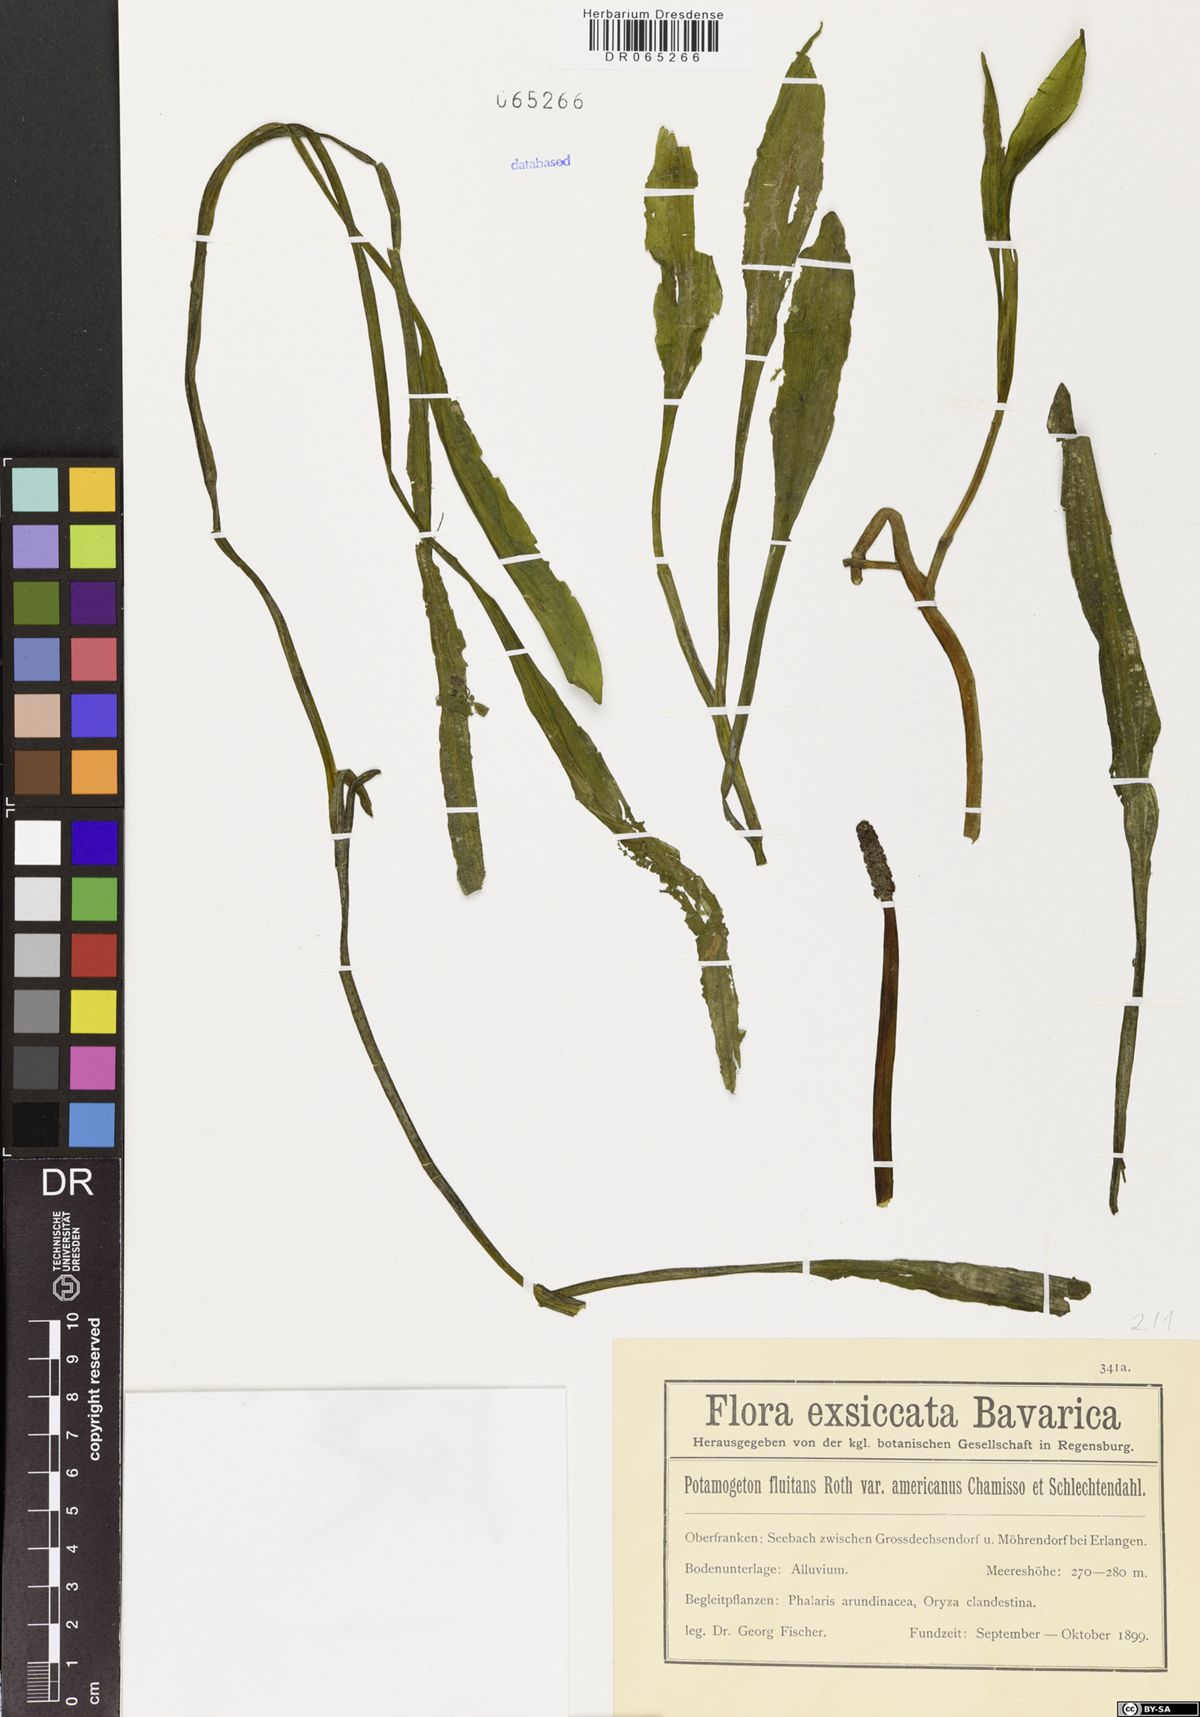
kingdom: Plantae
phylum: Tracheophyta
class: Liliopsida
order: Alismatales
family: Potamogetonaceae
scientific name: Potamogetonaceae
